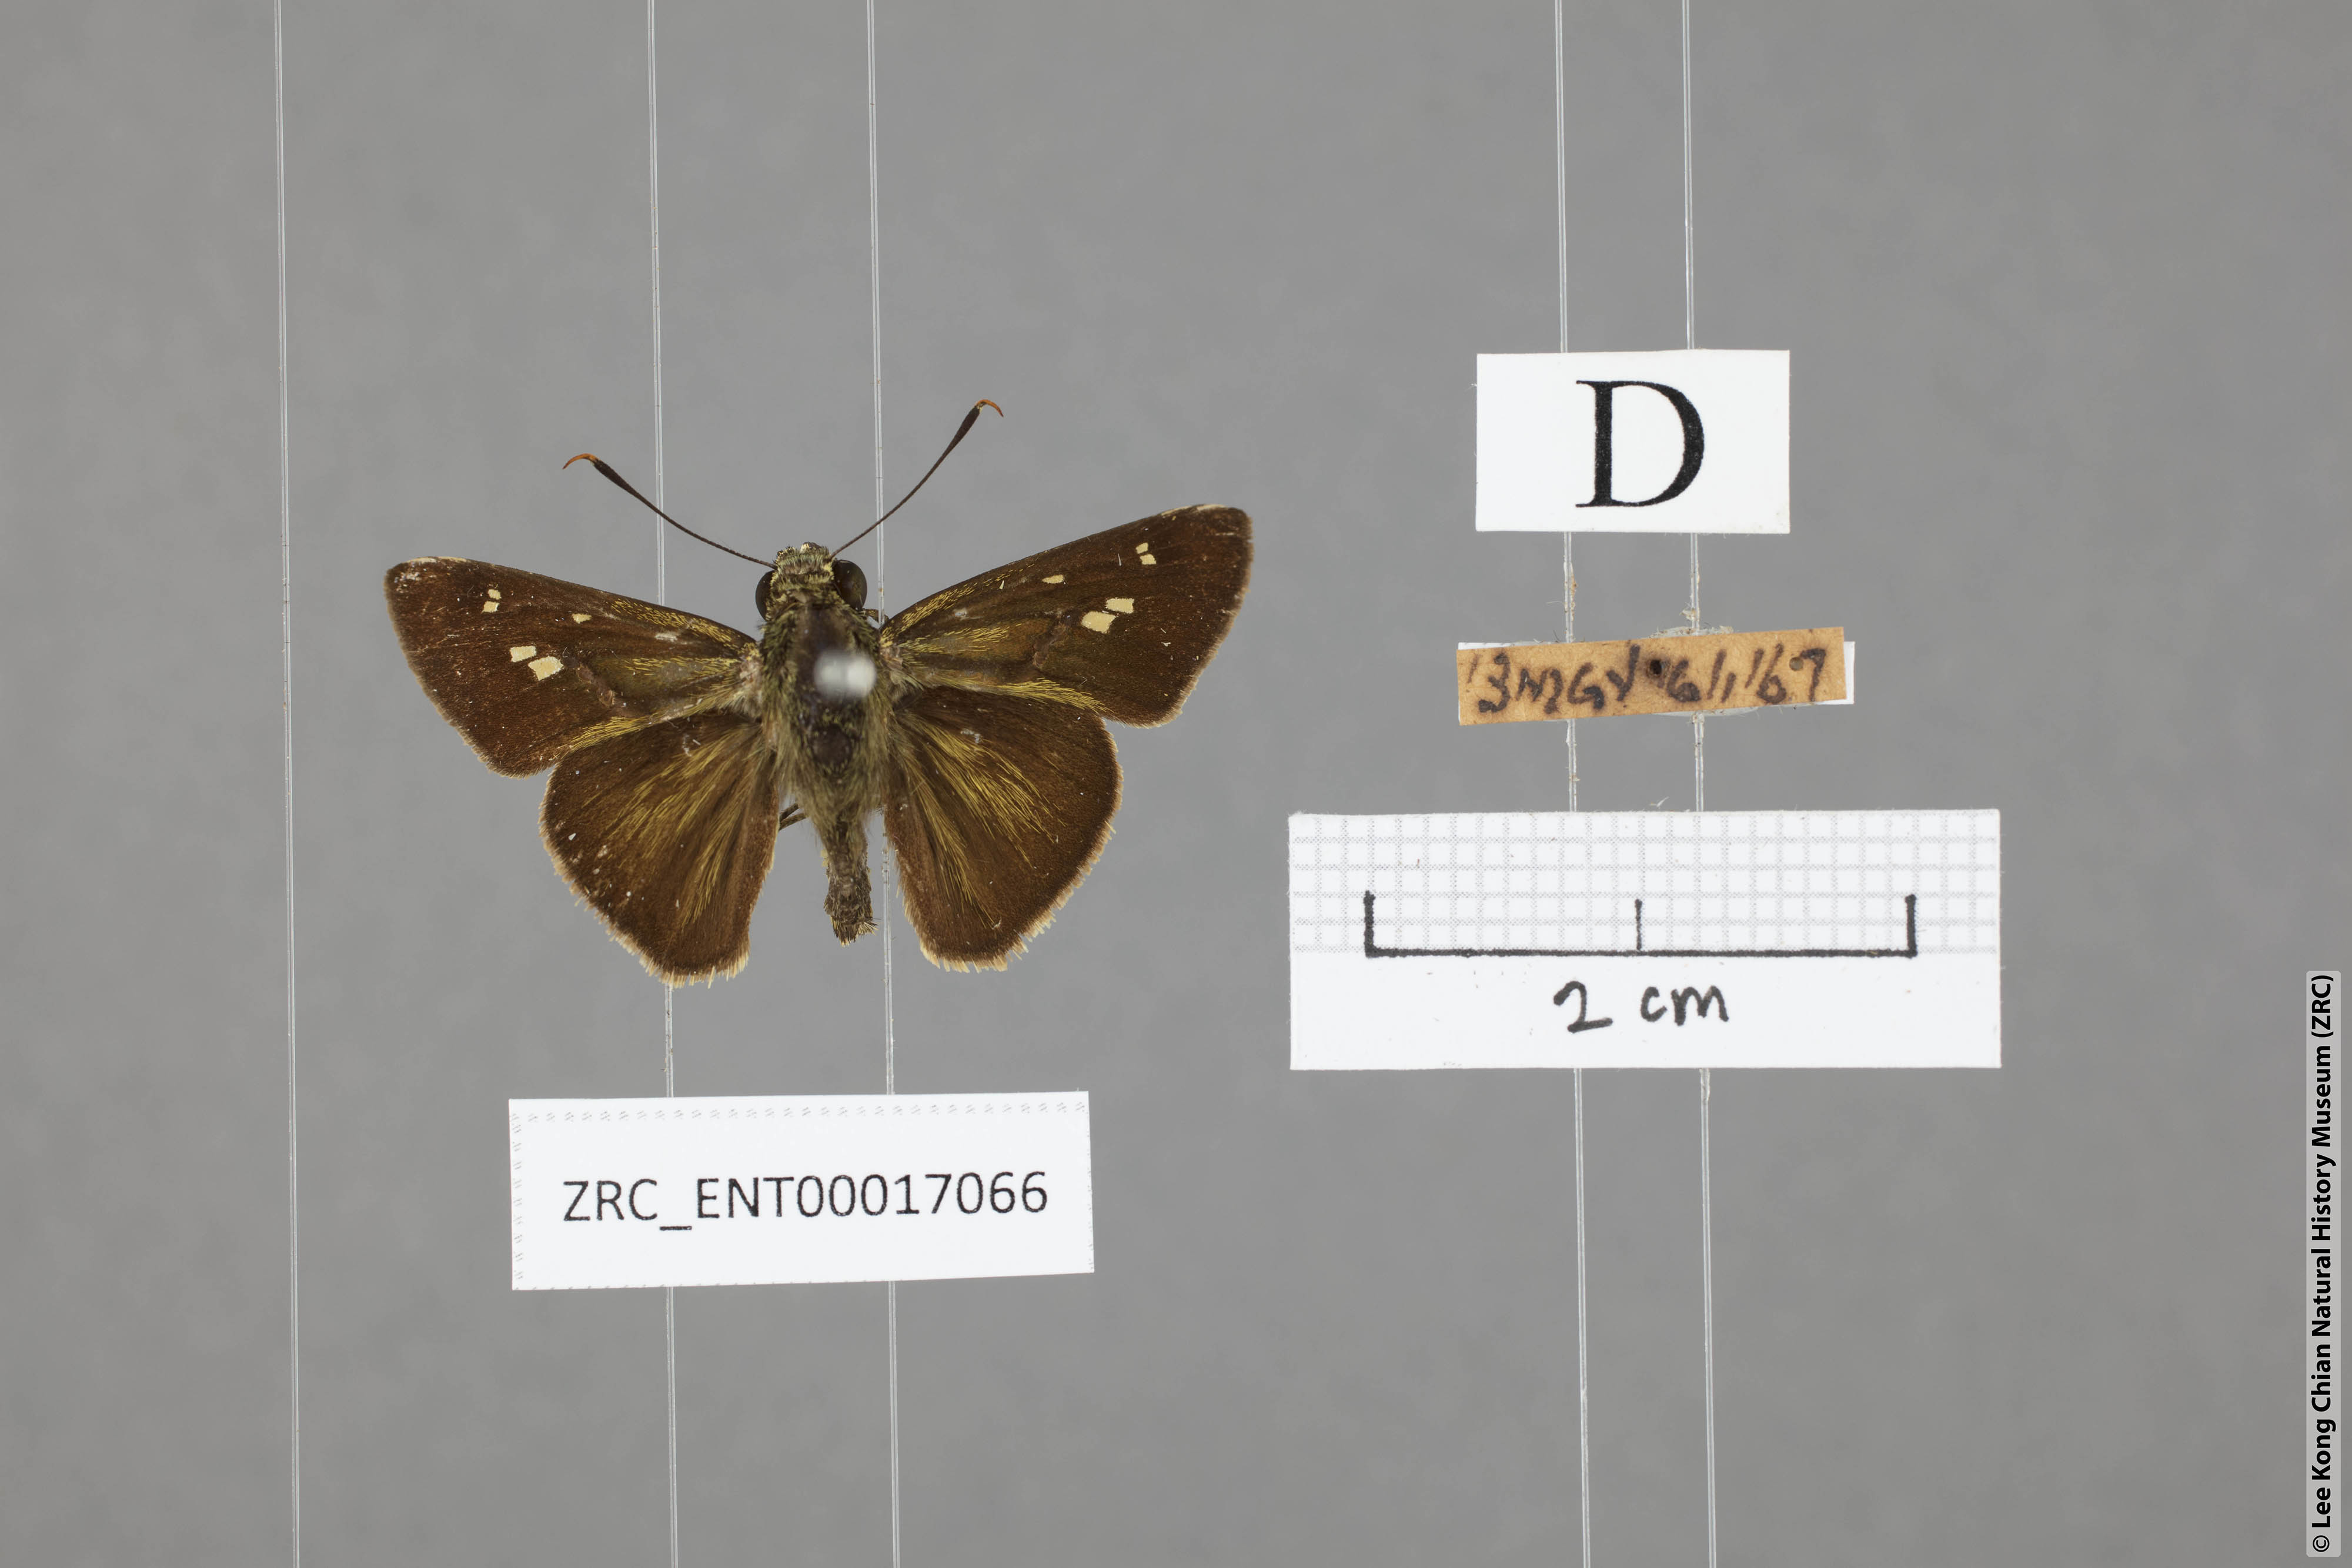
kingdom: Animalia
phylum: Arthropoda
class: Insecta
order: Lepidoptera
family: Hesperiidae
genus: Halpe
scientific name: Halpe sikkima
